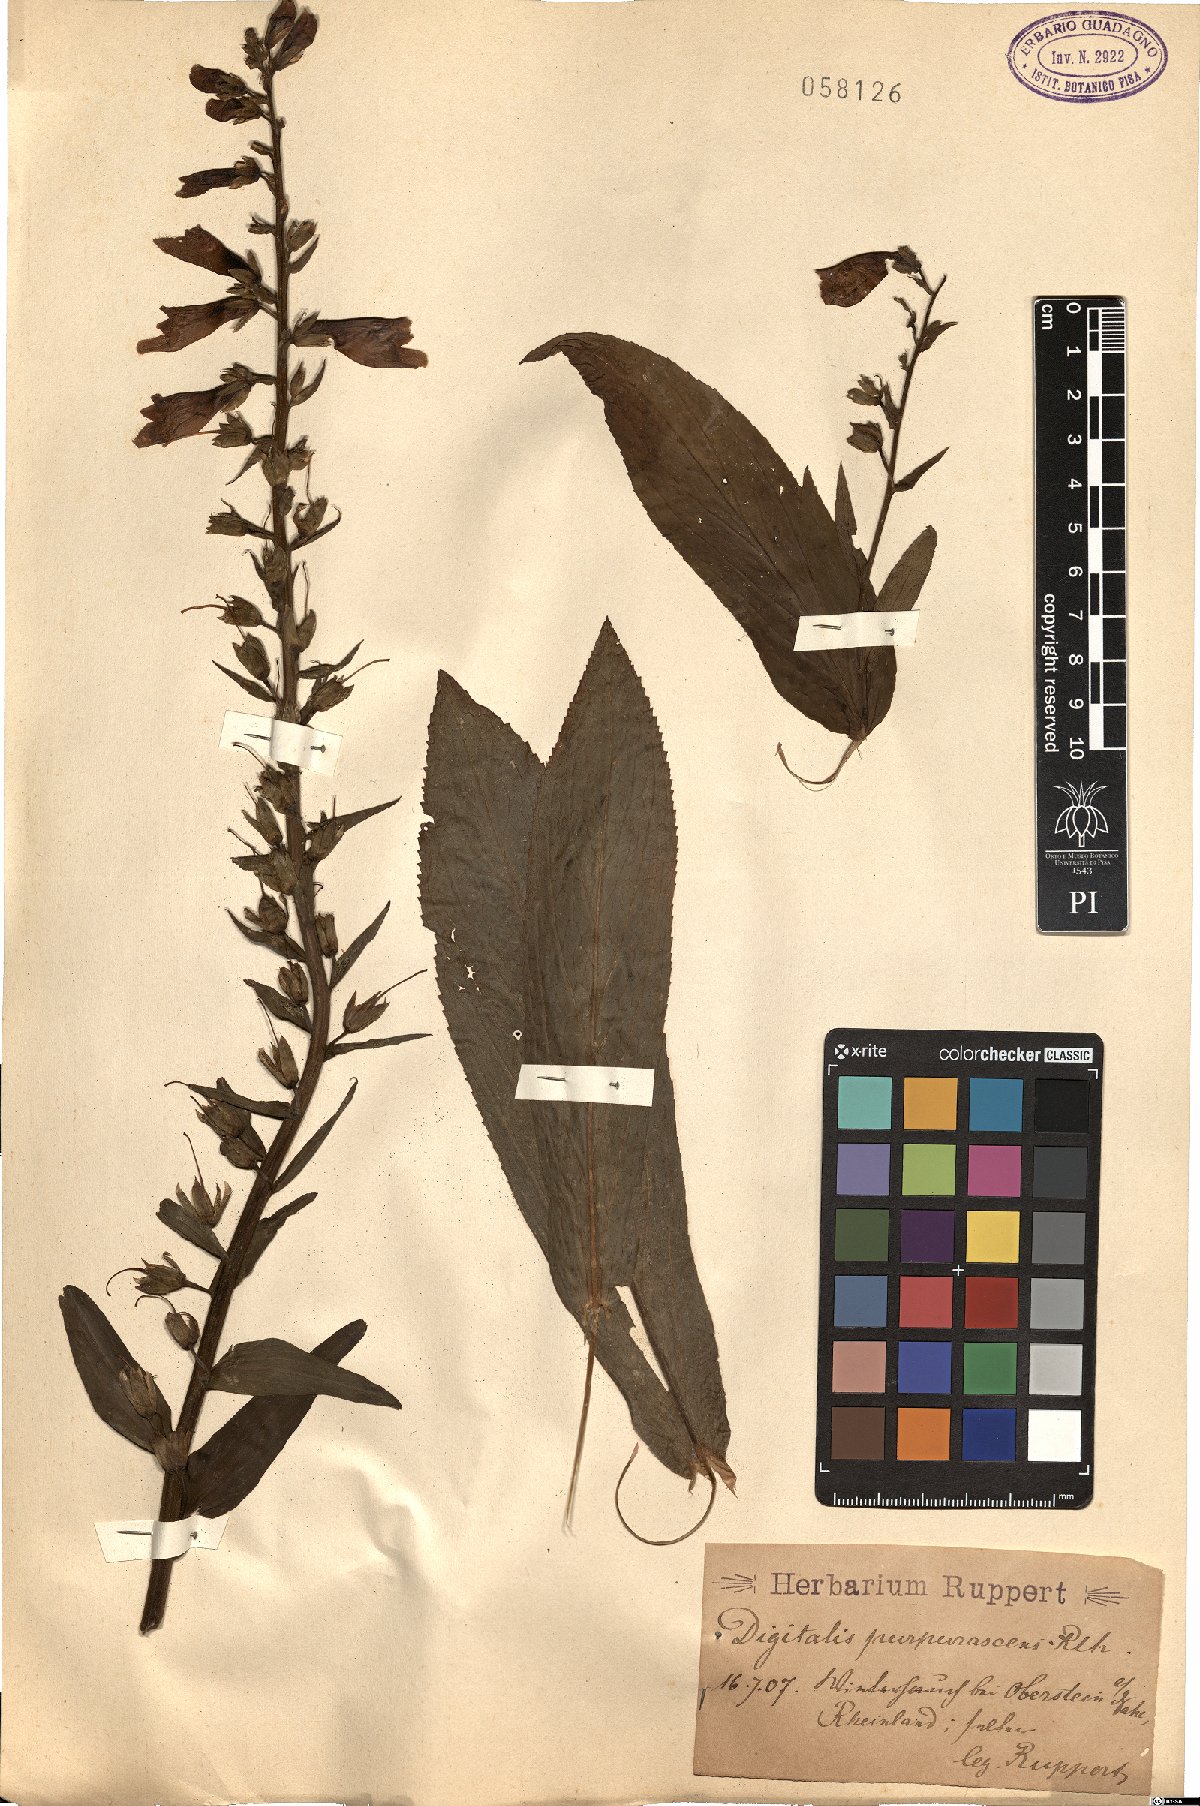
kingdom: Plantae
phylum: Tracheophyta
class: Magnoliopsida
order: Lamiales
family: Scrophulariaceae
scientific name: Scrophulariaceae
